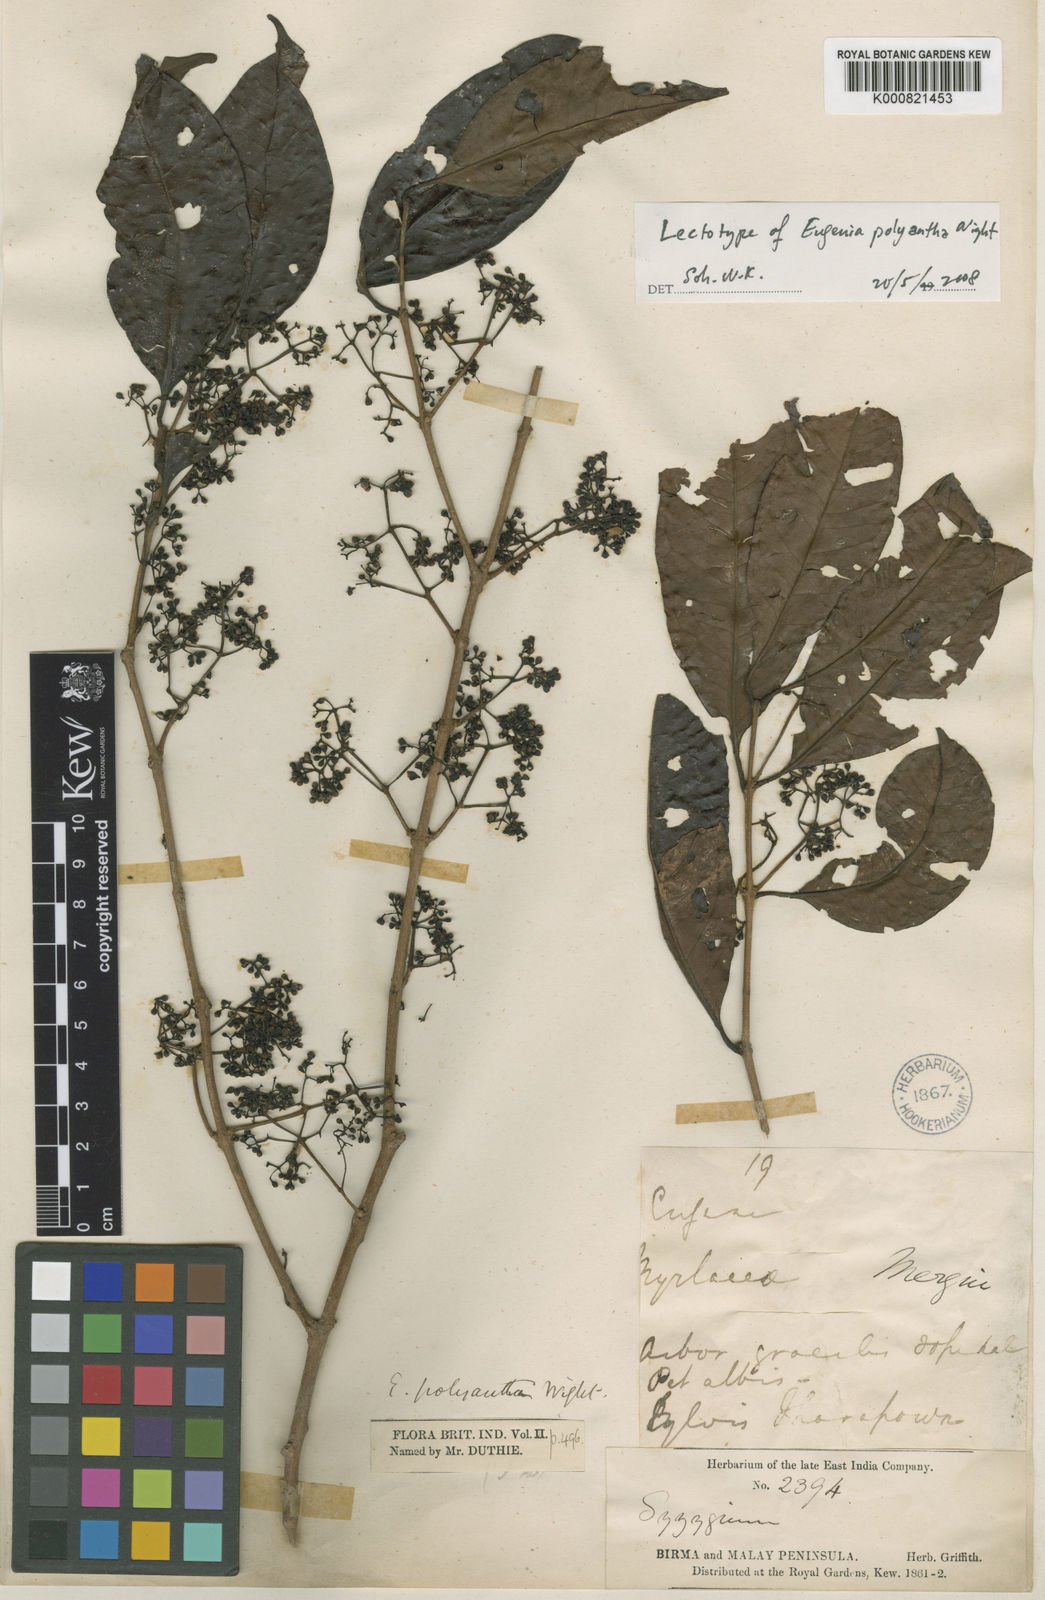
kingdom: Plantae
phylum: Tracheophyta
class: Magnoliopsida
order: Myrtales
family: Myrtaceae
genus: Syzygium
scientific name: Syzygium polyanthum
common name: Indonesian bayleaf
